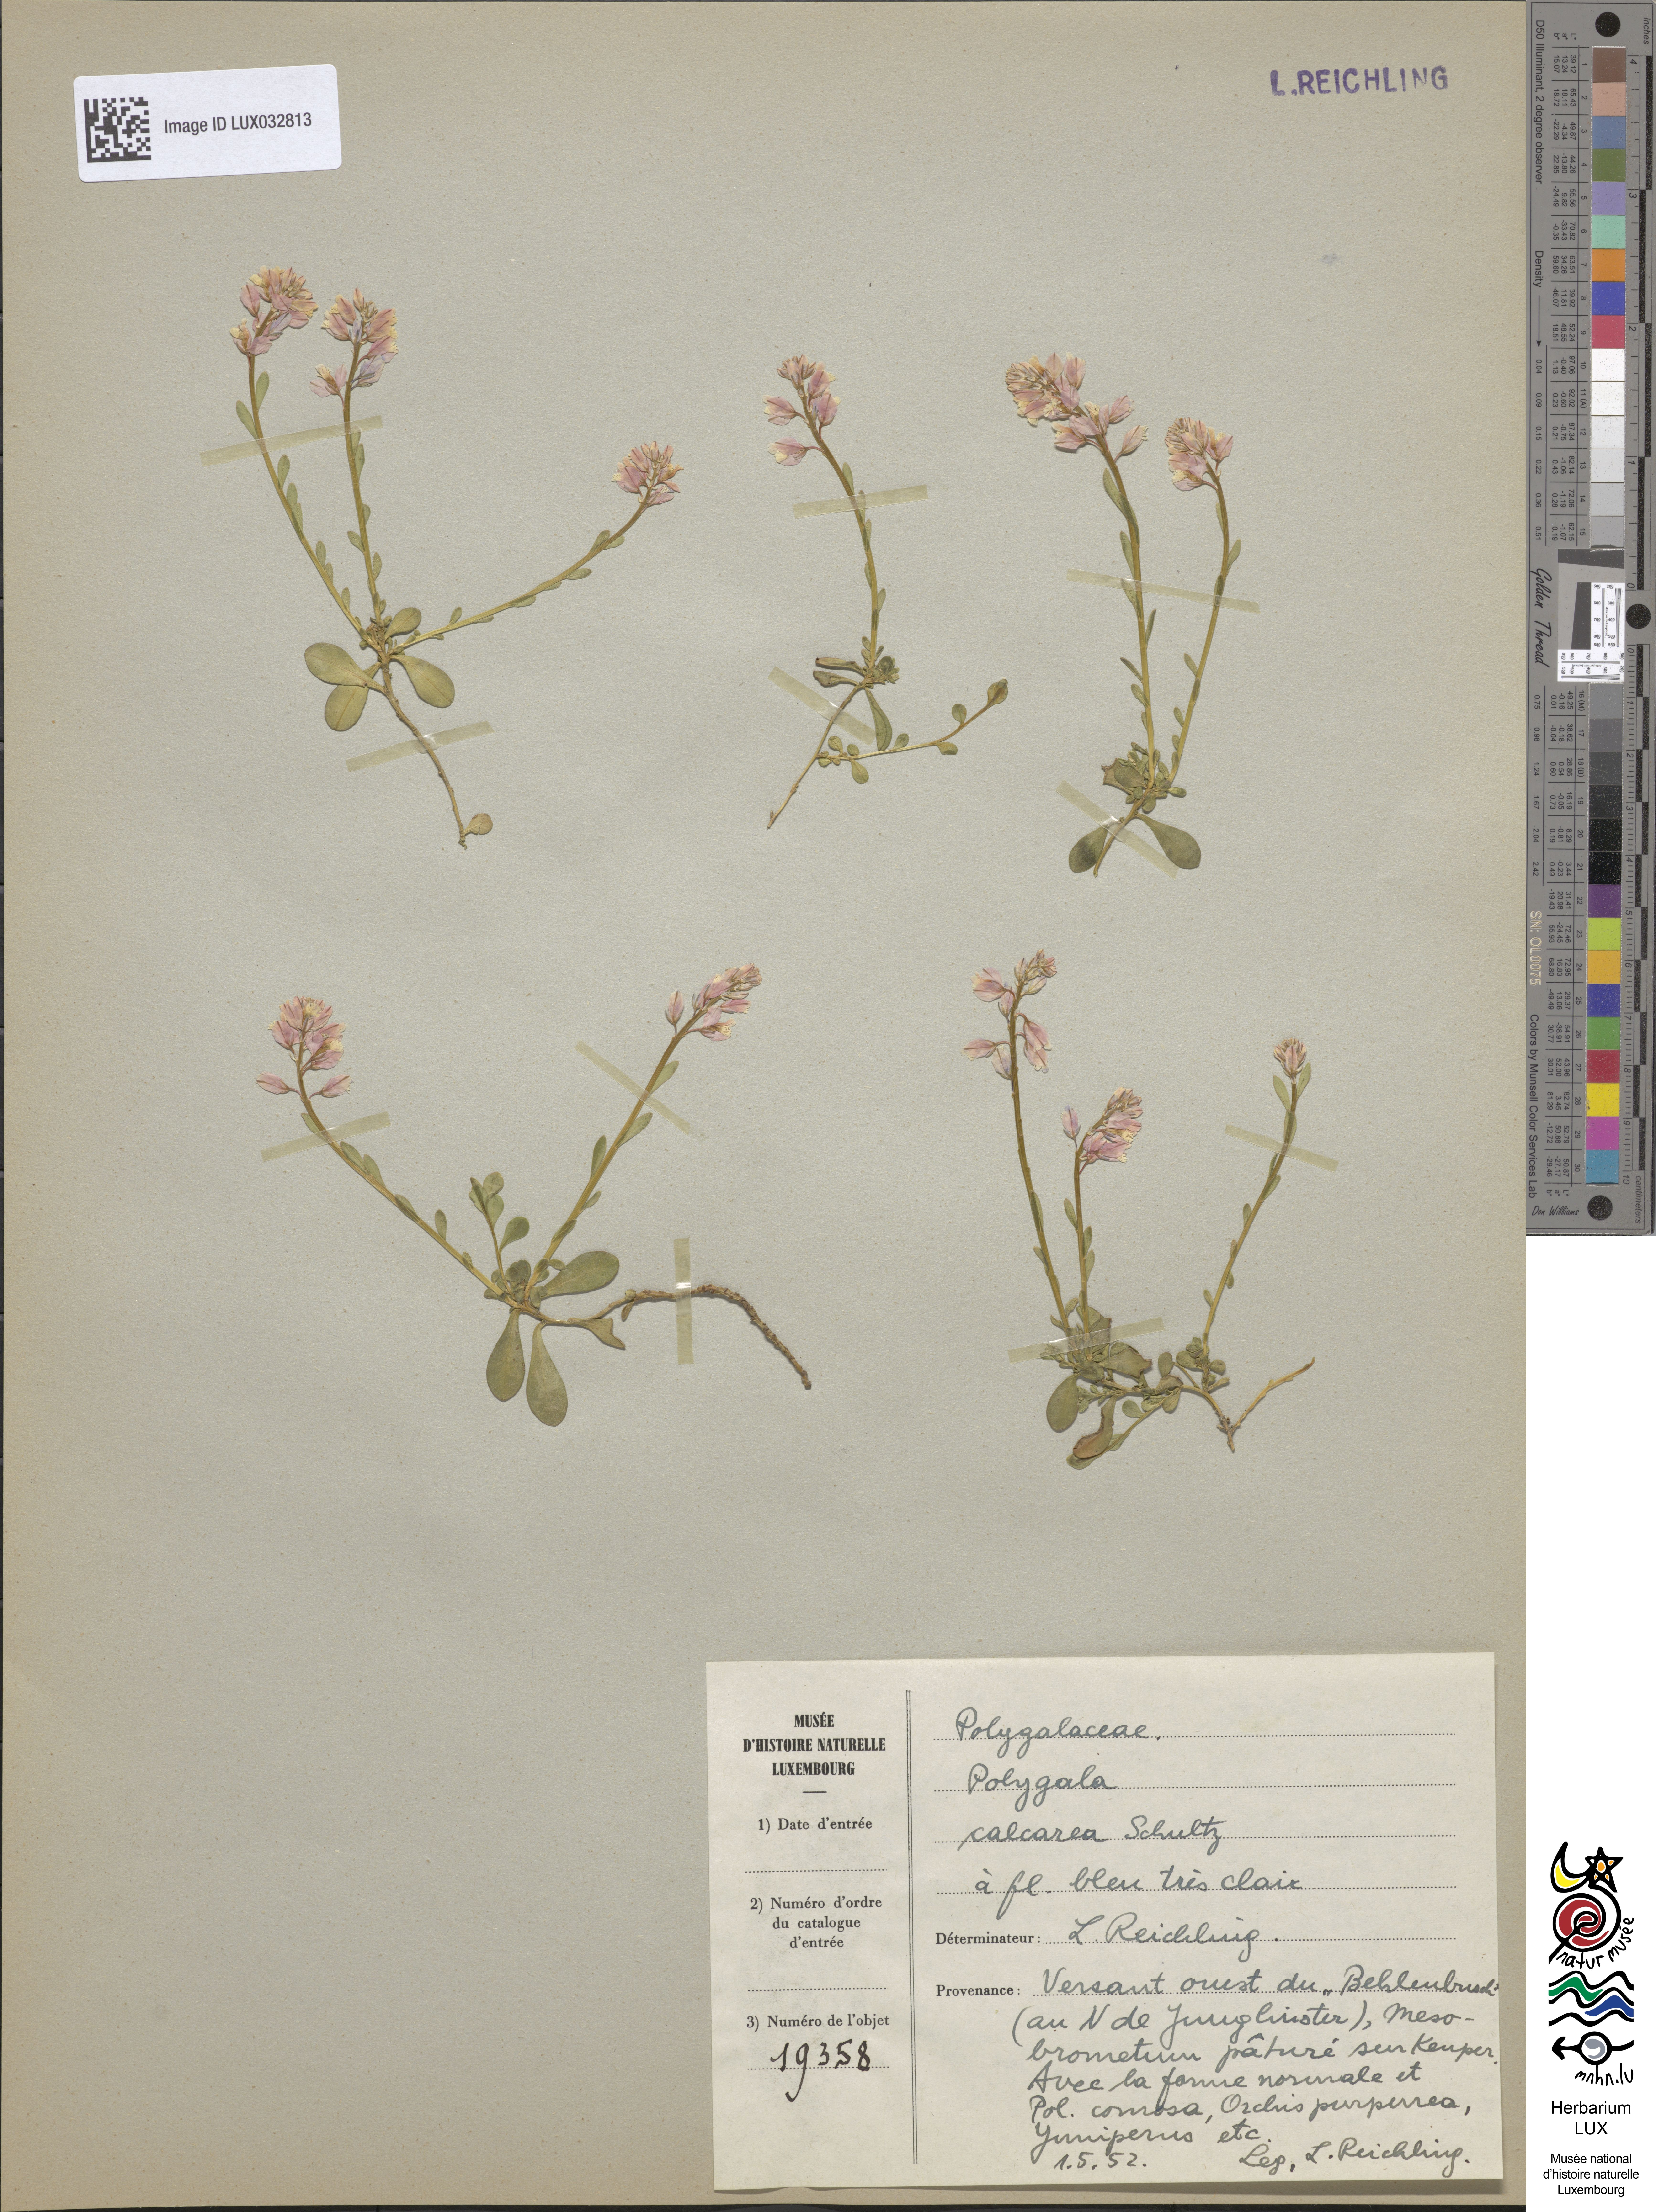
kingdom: Plantae
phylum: Tracheophyta
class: Magnoliopsida
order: Fabales
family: Polygalaceae
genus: Polygala
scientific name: Polygala calcarea
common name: Chalk milkwort
